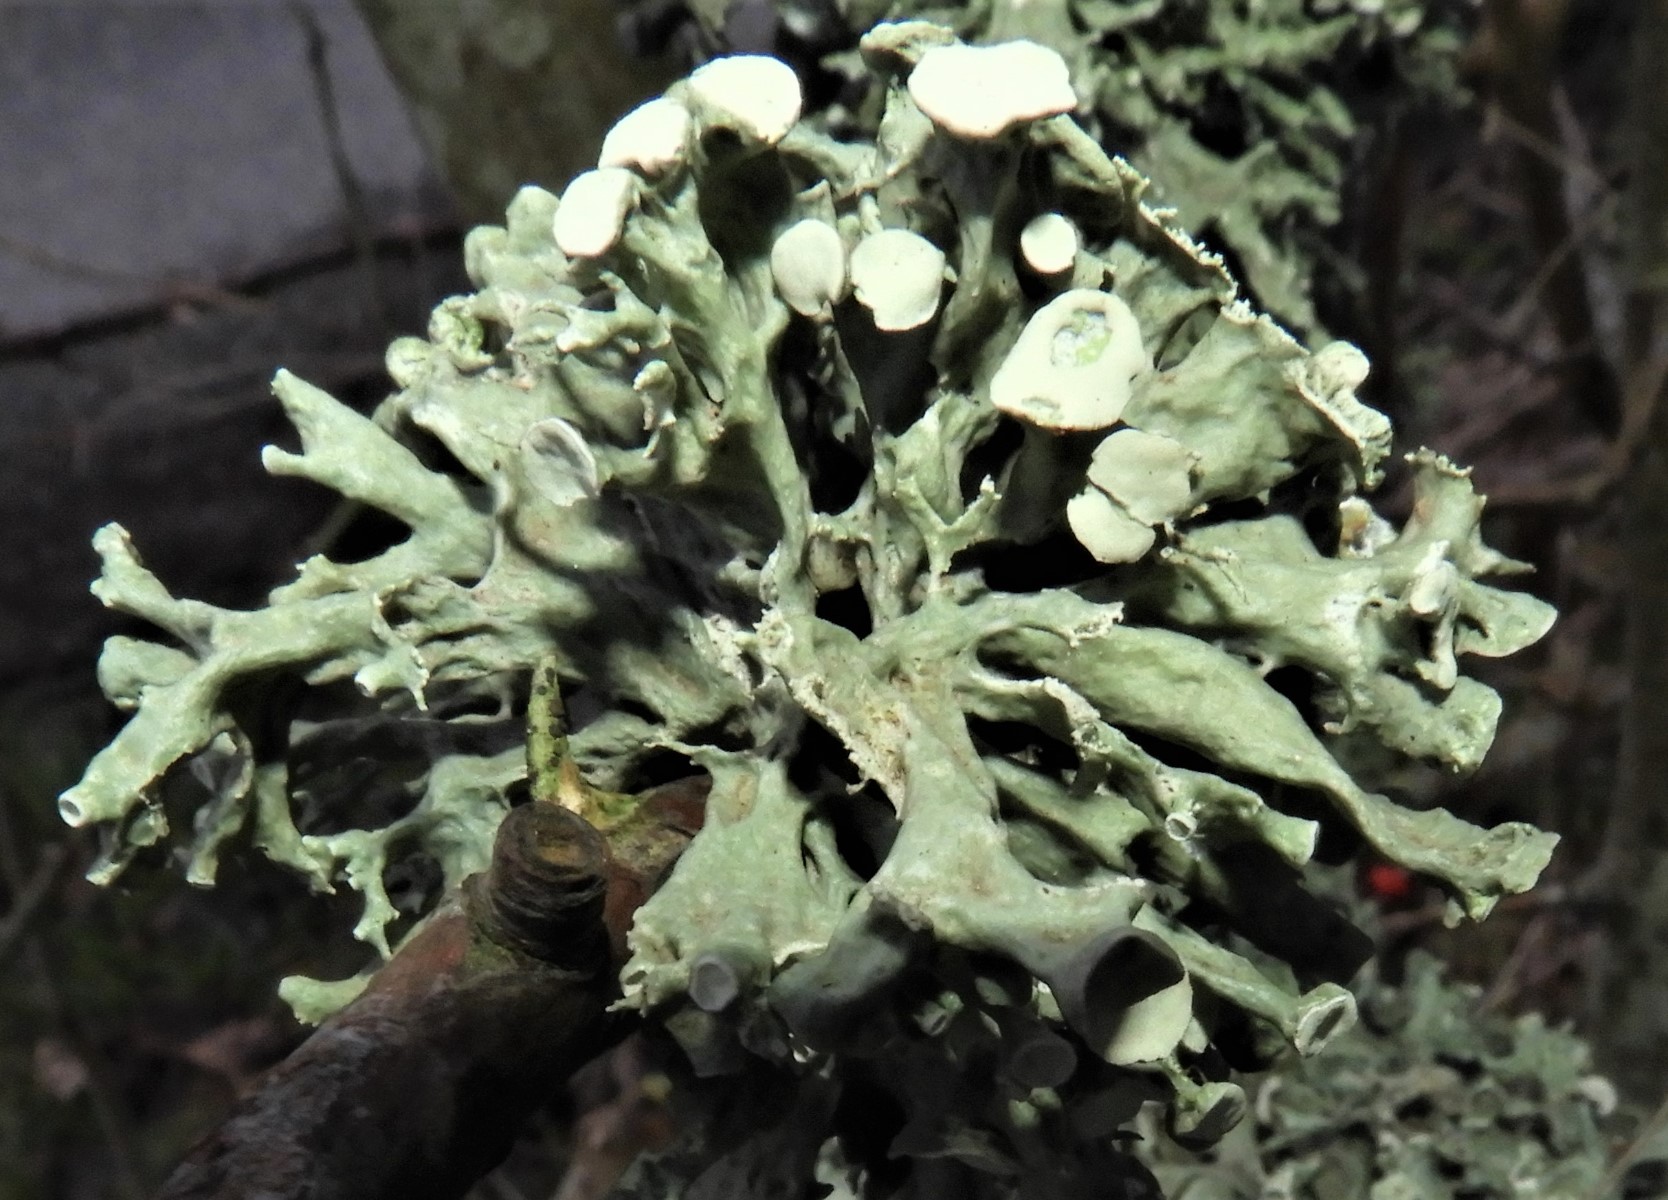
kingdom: Fungi
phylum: Ascomycota
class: Lecanoromycetes
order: Lecanorales
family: Ramalinaceae
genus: Ramalina
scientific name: Ramalina fastigiata
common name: tue-grenlav
